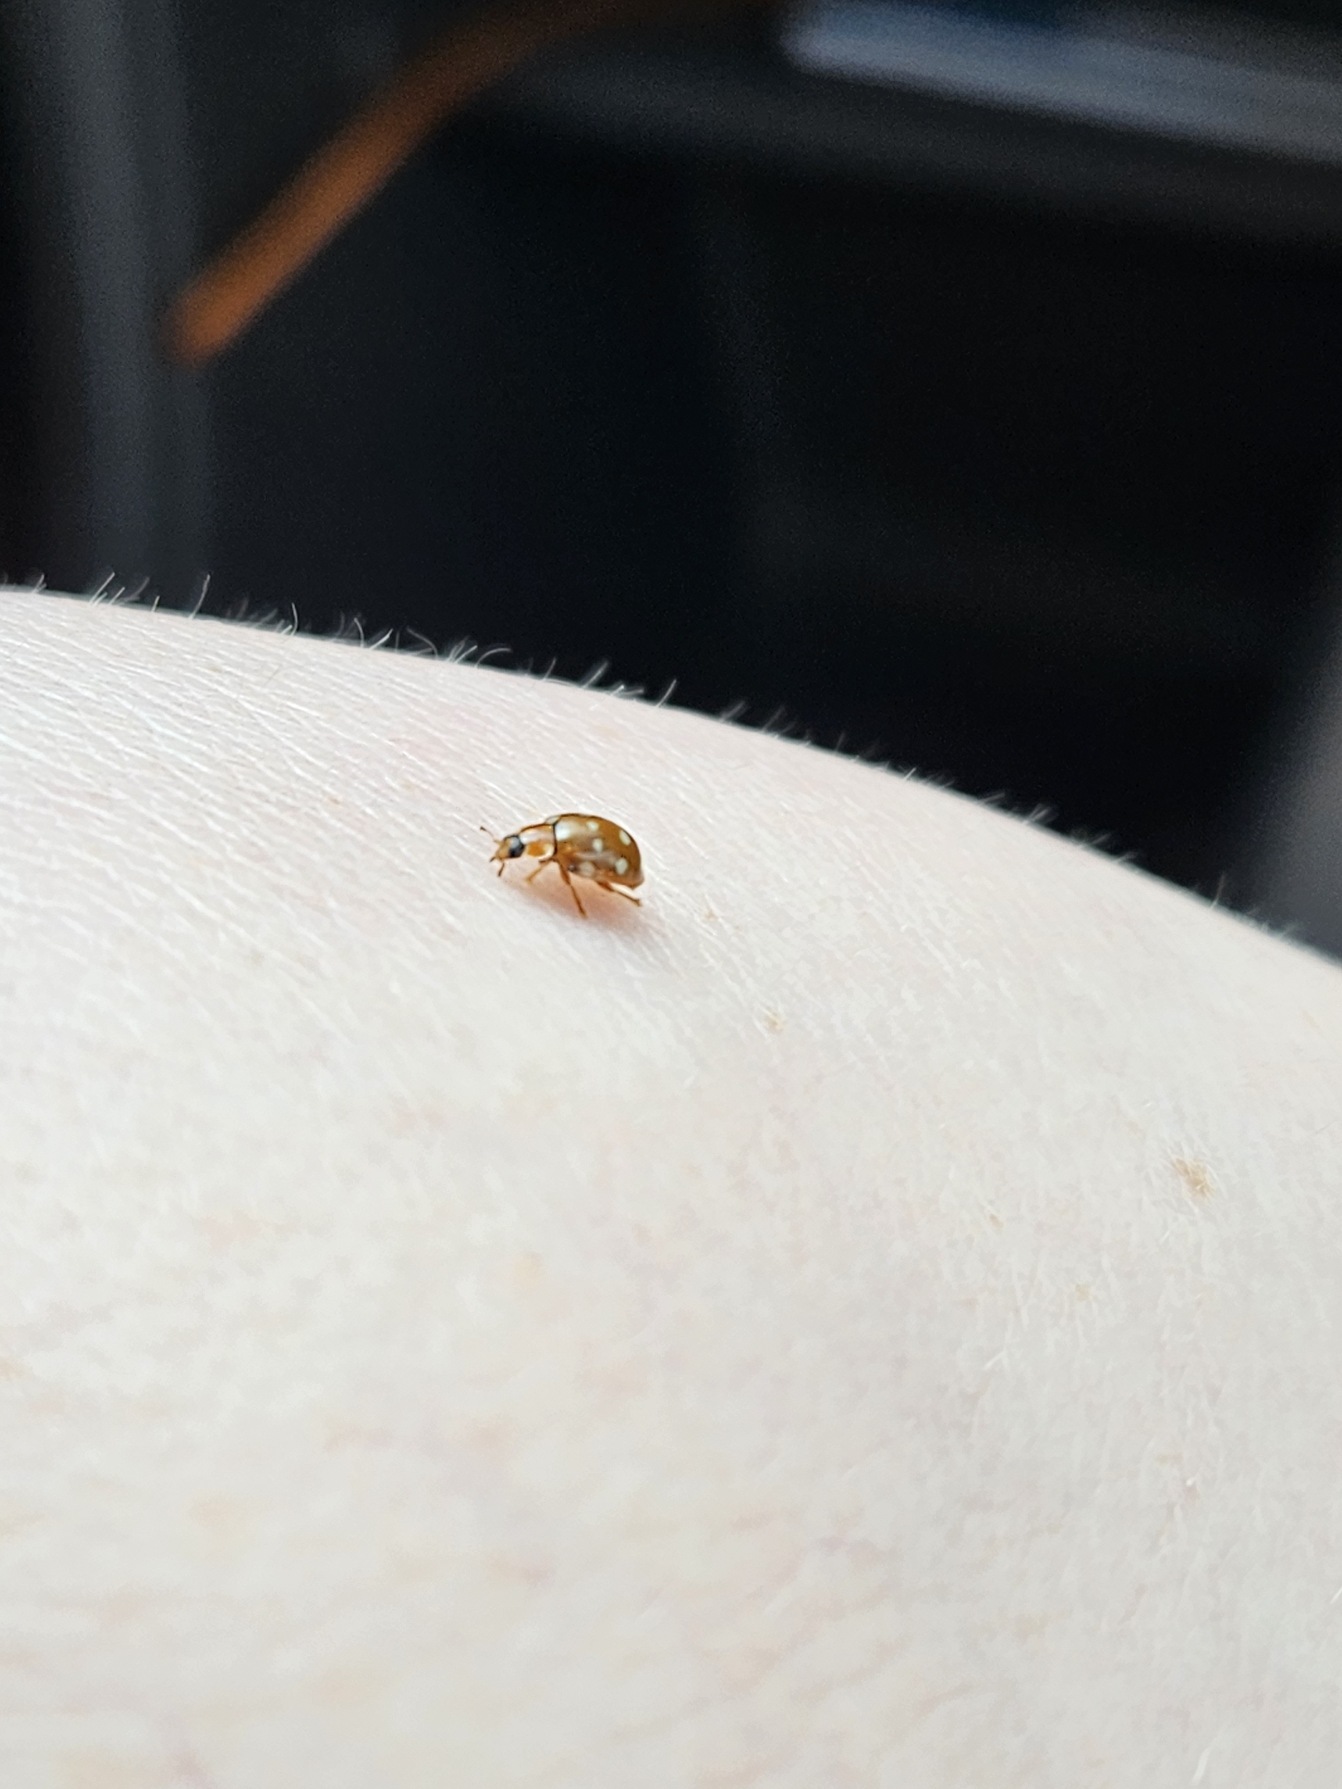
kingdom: Animalia
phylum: Arthropoda
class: Insecta
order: Coleoptera
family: Coccinellidae
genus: Calvia
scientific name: Calvia quatuordecimguttata
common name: Fjortenplettet mariehøne
